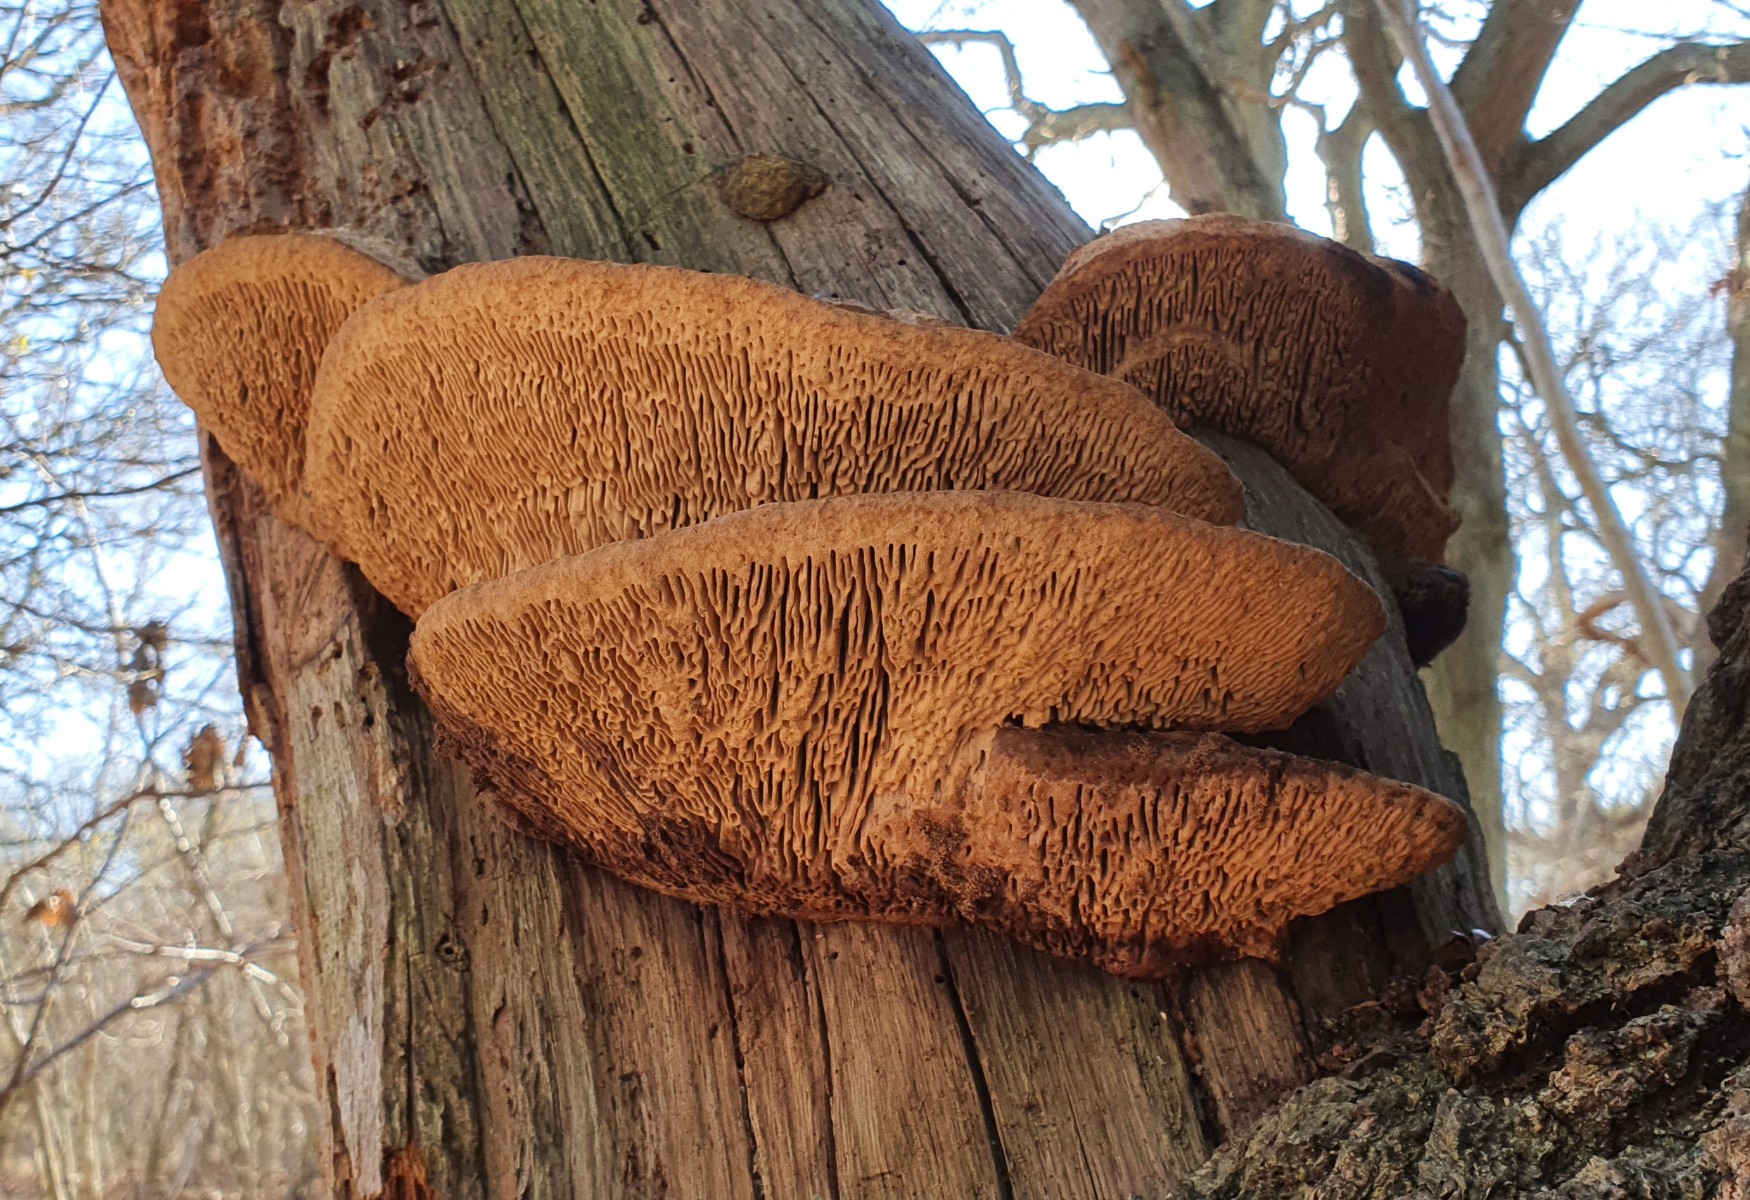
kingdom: Fungi
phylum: Basidiomycota
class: Agaricomycetes
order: Polyporales
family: Fomitopsidaceae
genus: Daedalea
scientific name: Daedalea quercina
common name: ege-labyrintsvamp
